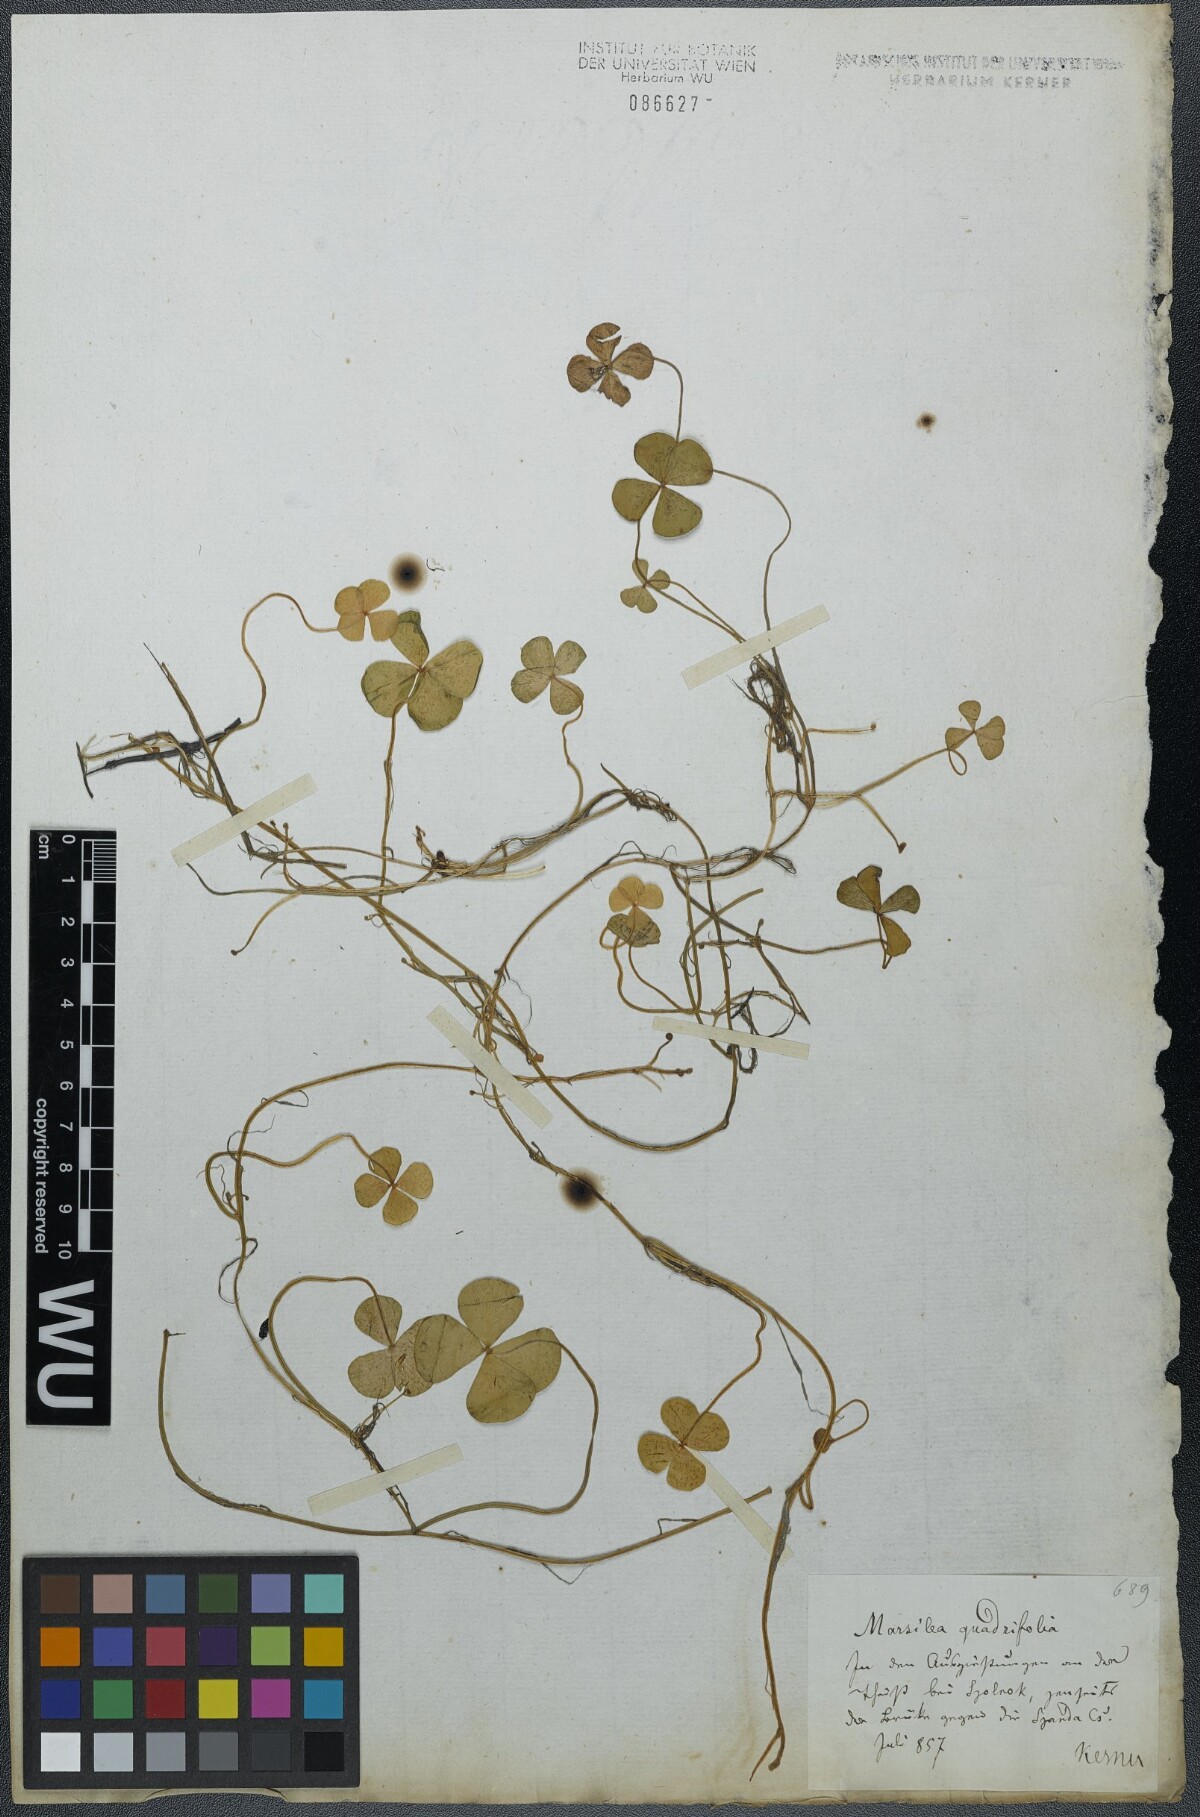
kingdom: Plantae
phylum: Tracheophyta
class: Polypodiopsida
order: Salviniales
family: Marsileaceae
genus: Marsilea
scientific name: Marsilea quadrifolia
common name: Water shamrock
